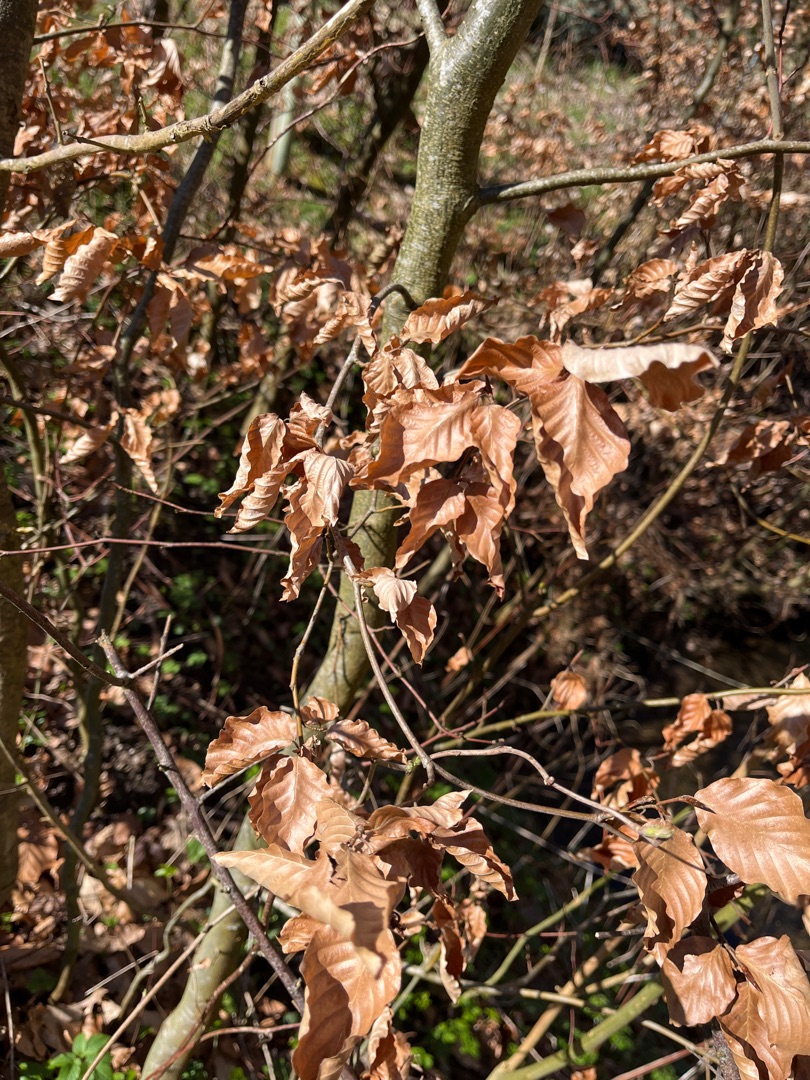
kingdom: Plantae
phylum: Tracheophyta
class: Magnoliopsida
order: Fagales
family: Fagaceae
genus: Fagus
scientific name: Fagus sylvatica
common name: Bøg
